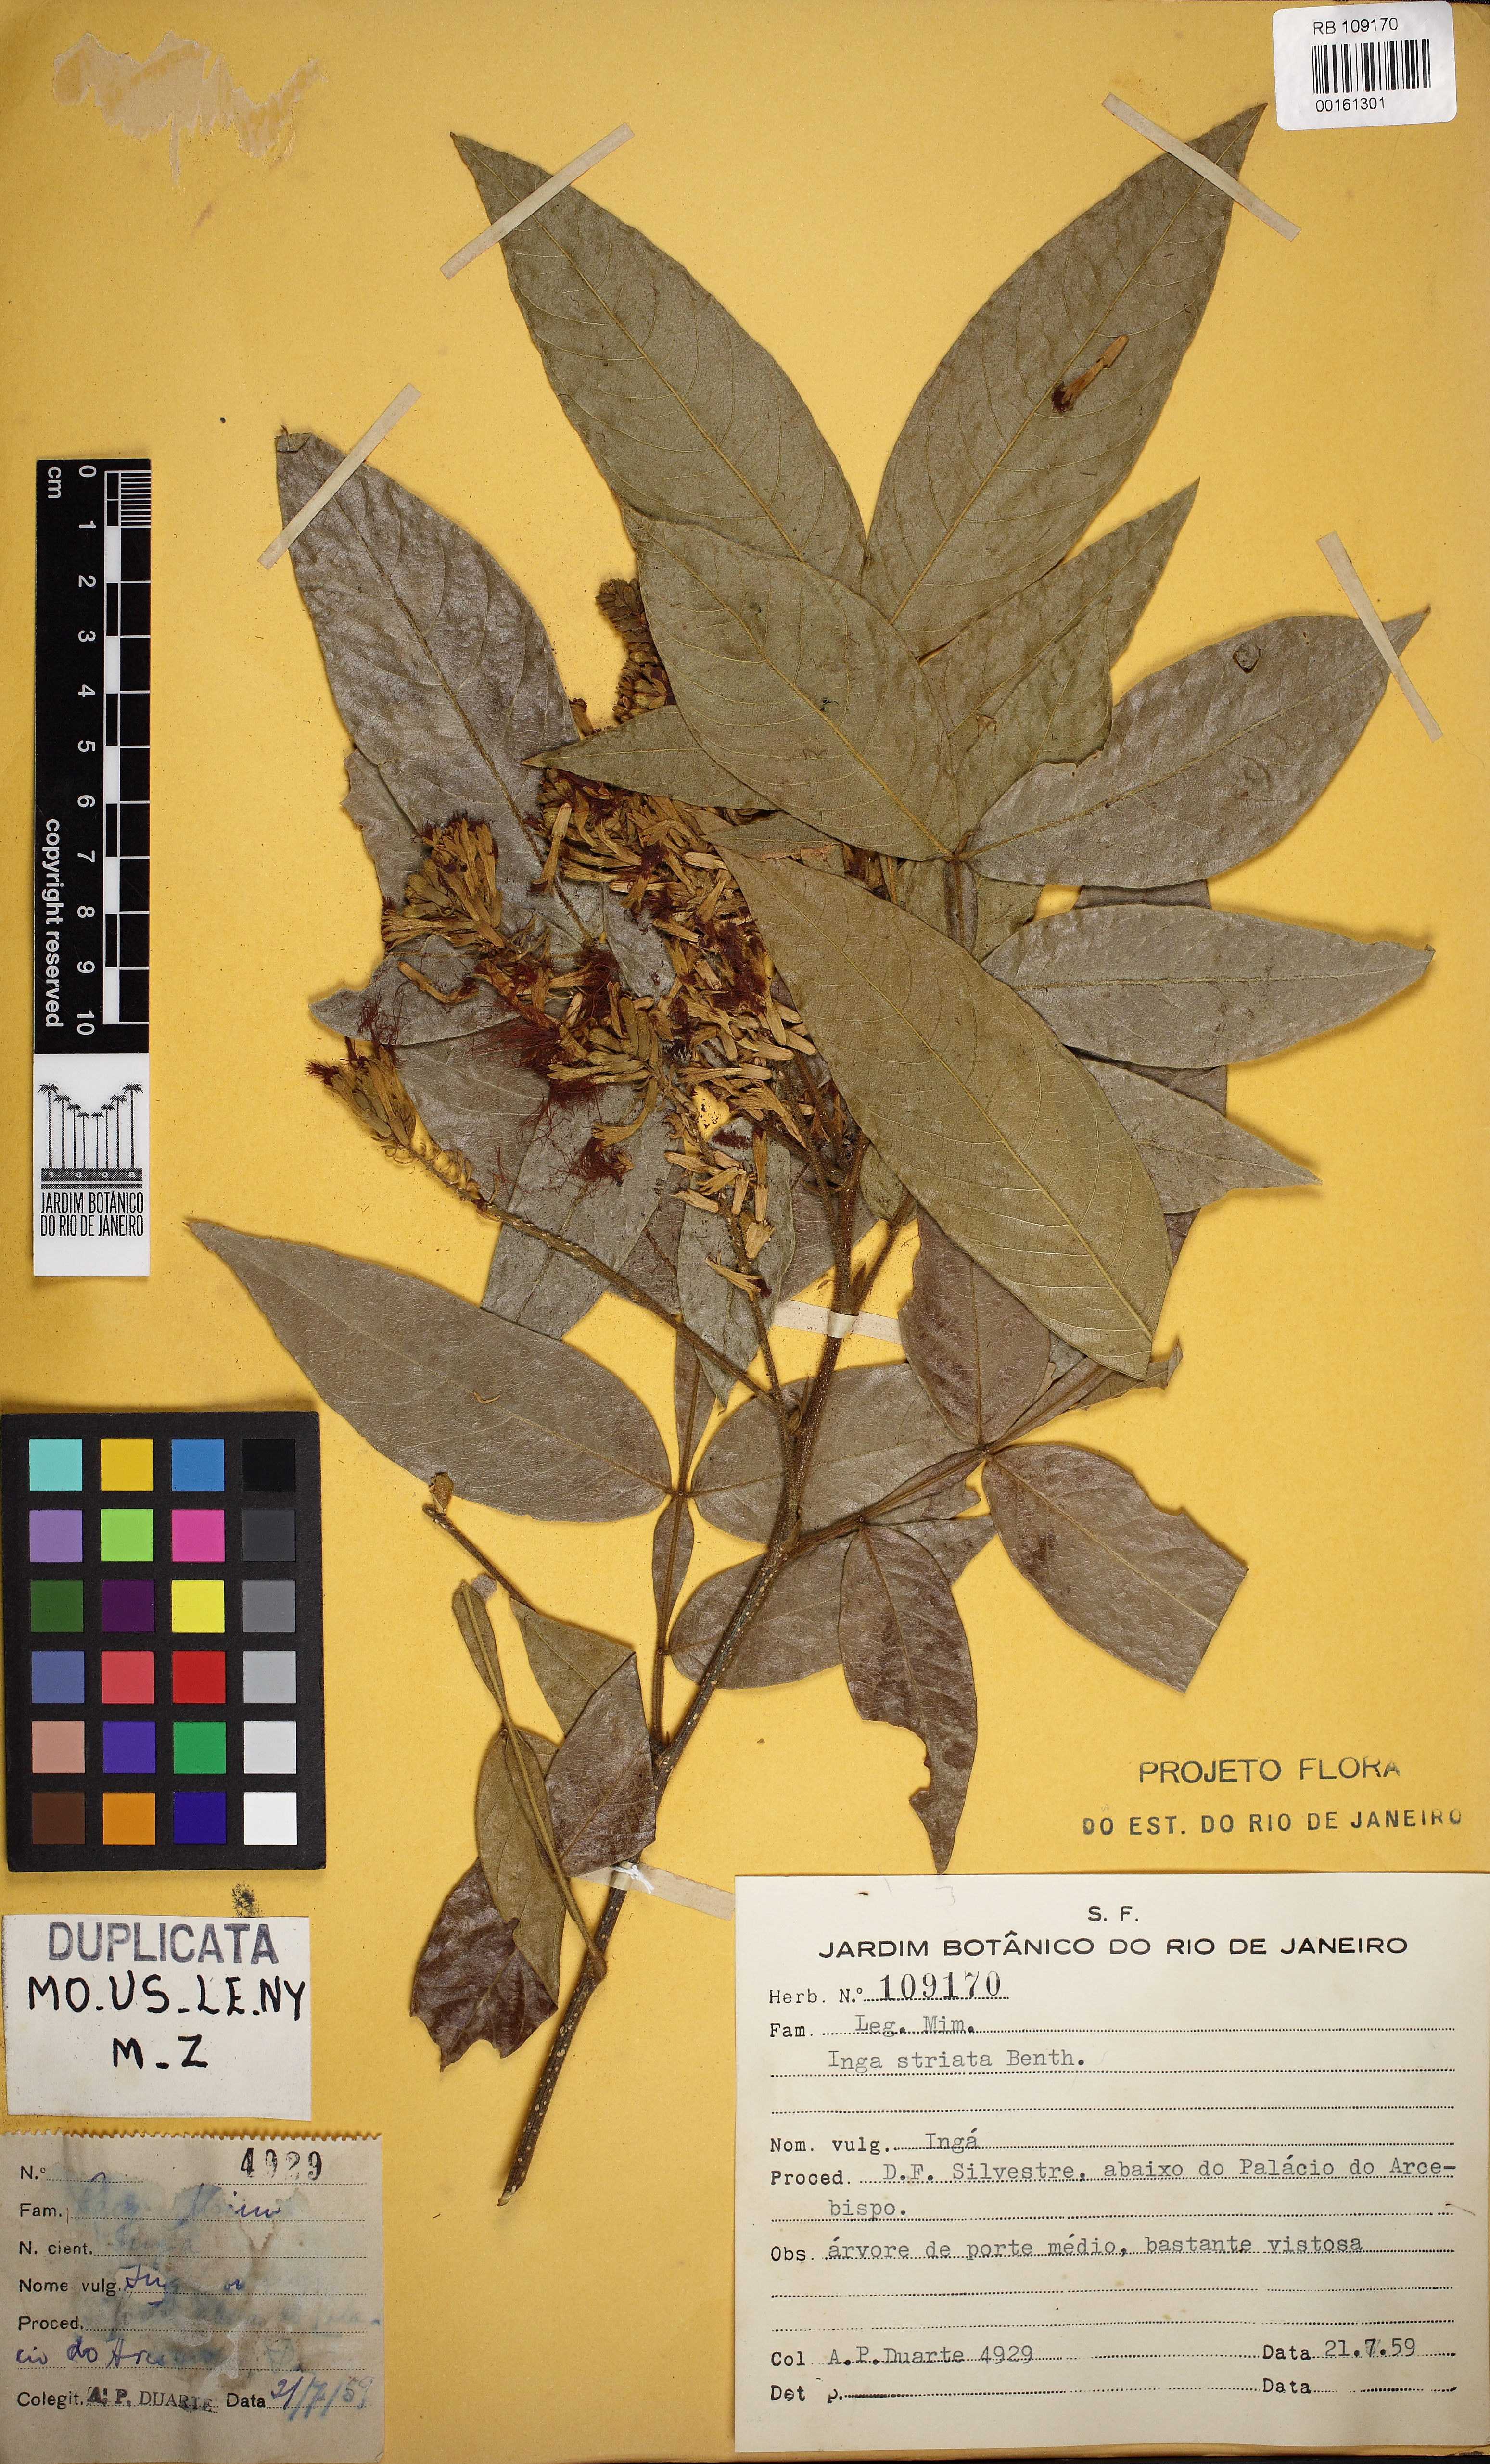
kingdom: Plantae
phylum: Tracheophyta
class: Magnoliopsida
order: Fabales
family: Fabaceae
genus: Inga
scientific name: Inga striata
